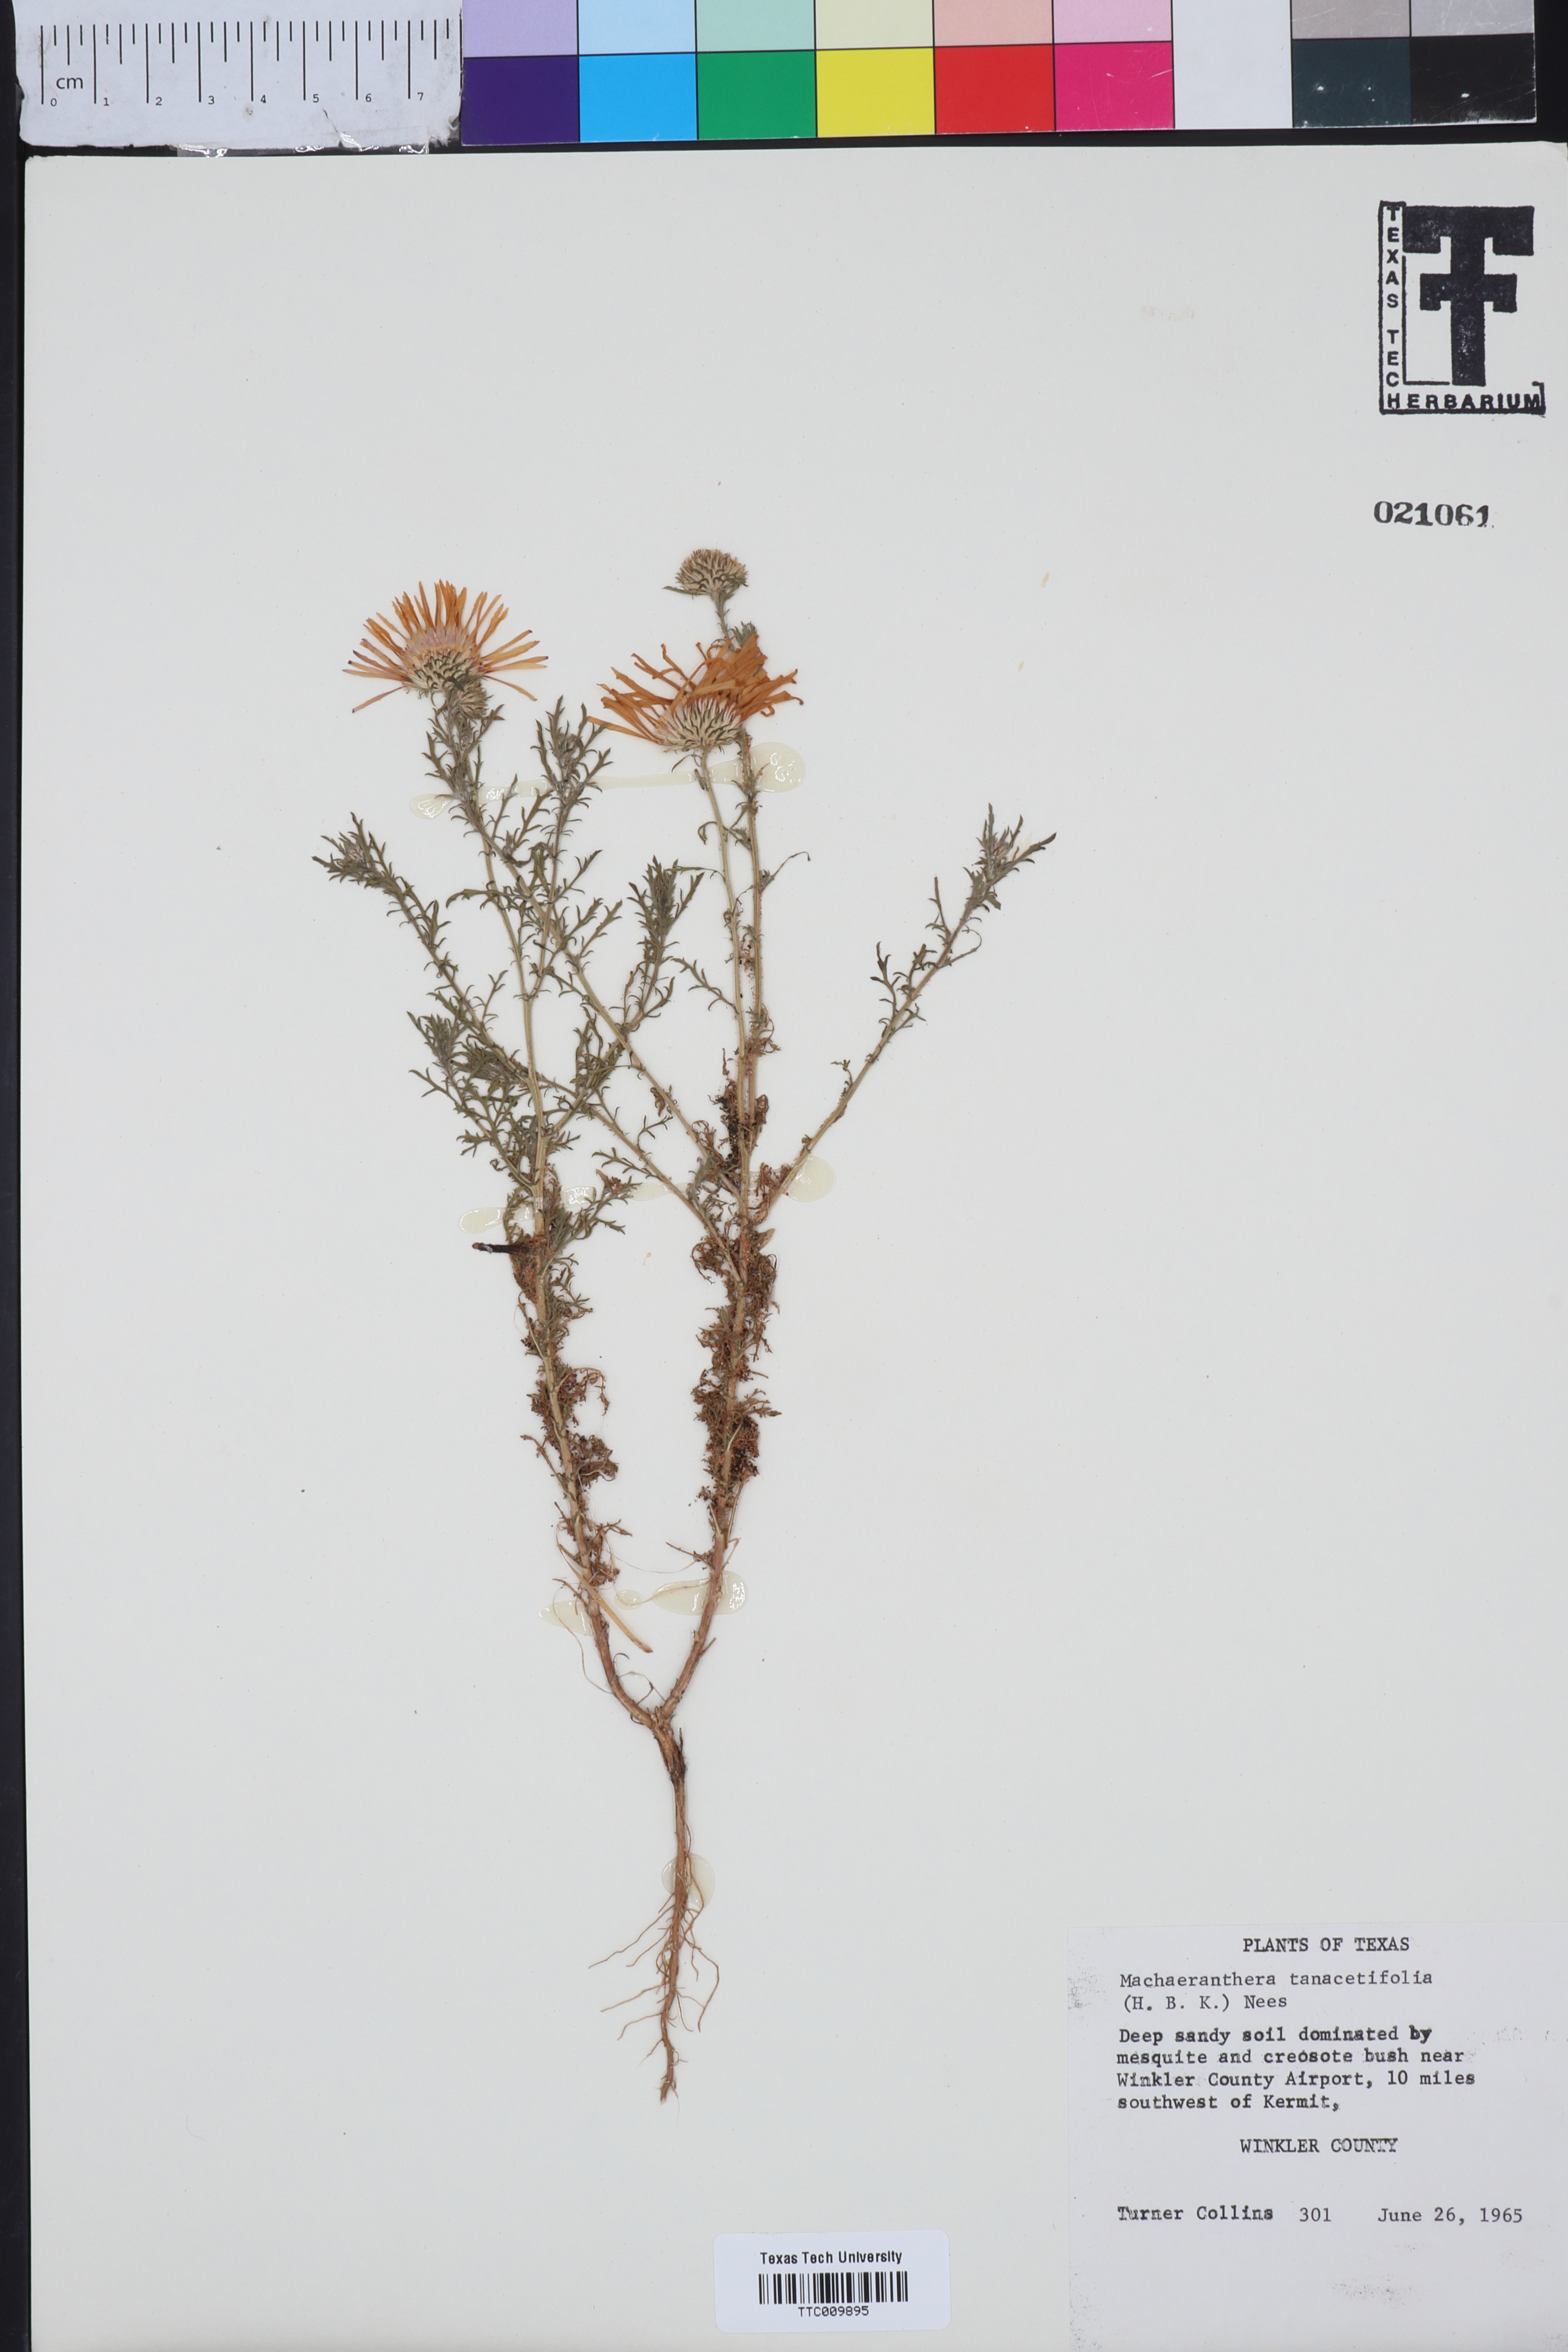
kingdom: Plantae
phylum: Tracheophyta
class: Magnoliopsida
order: Asterales
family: Asteraceae
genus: Machaeranthera
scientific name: Machaeranthera tanacetifolia
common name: Tansy-aster
